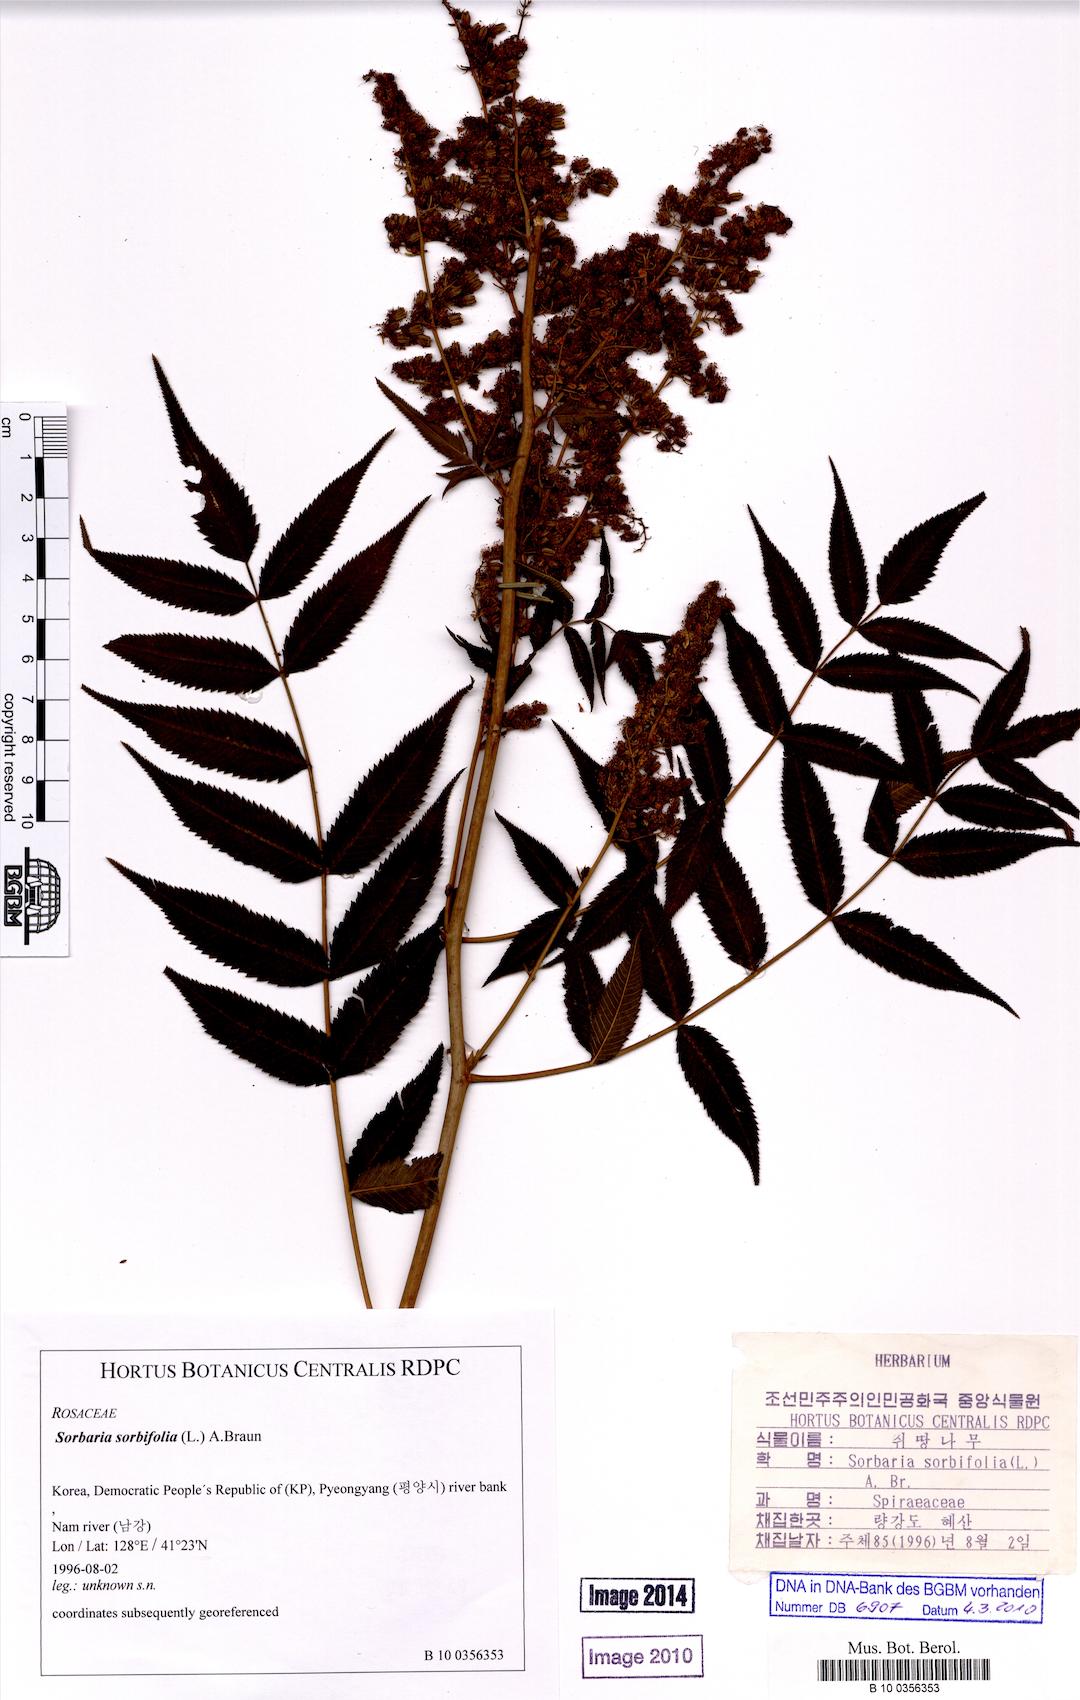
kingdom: Plantae
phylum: Tracheophyta
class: Magnoliopsida
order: Rosales
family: Rosaceae
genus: Sorbaria
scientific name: Sorbaria sorbifolia
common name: False spiraea
